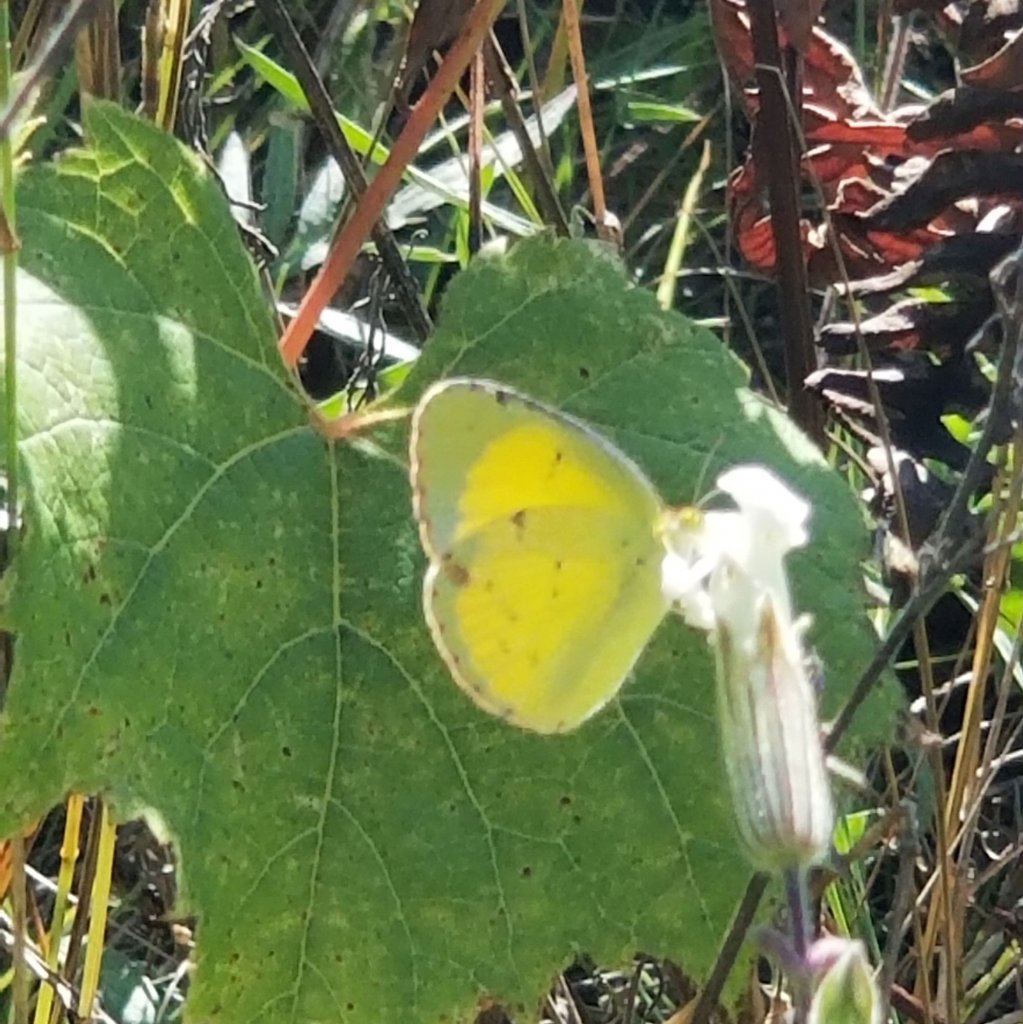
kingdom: Animalia
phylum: Arthropoda
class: Insecta
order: Lepidoptera
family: Pieridae
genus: Pyrisitia
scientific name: Pyrisitia lisa
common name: Little Yellow
